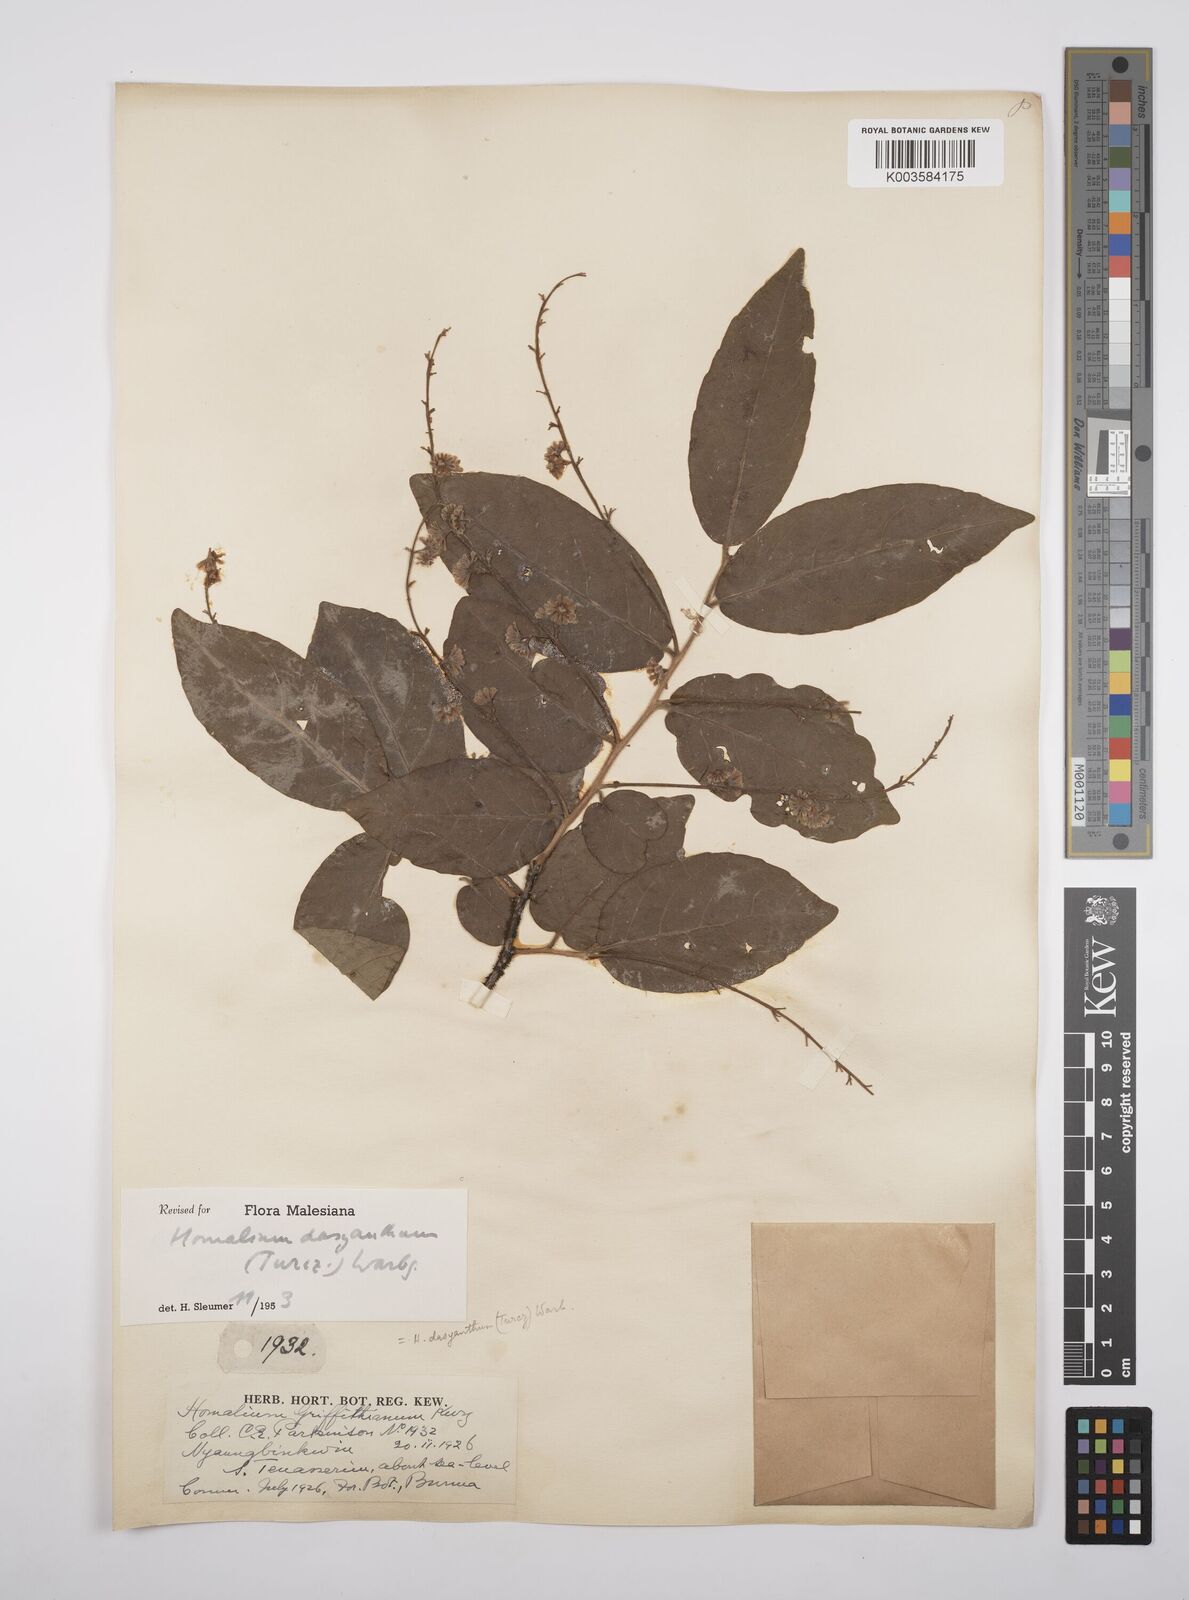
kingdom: Plantae
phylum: Tracheophyta
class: Magnoliopsida
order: Malpighiales
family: Salicaceae
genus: Homalium
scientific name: Homalium dasyanthum
